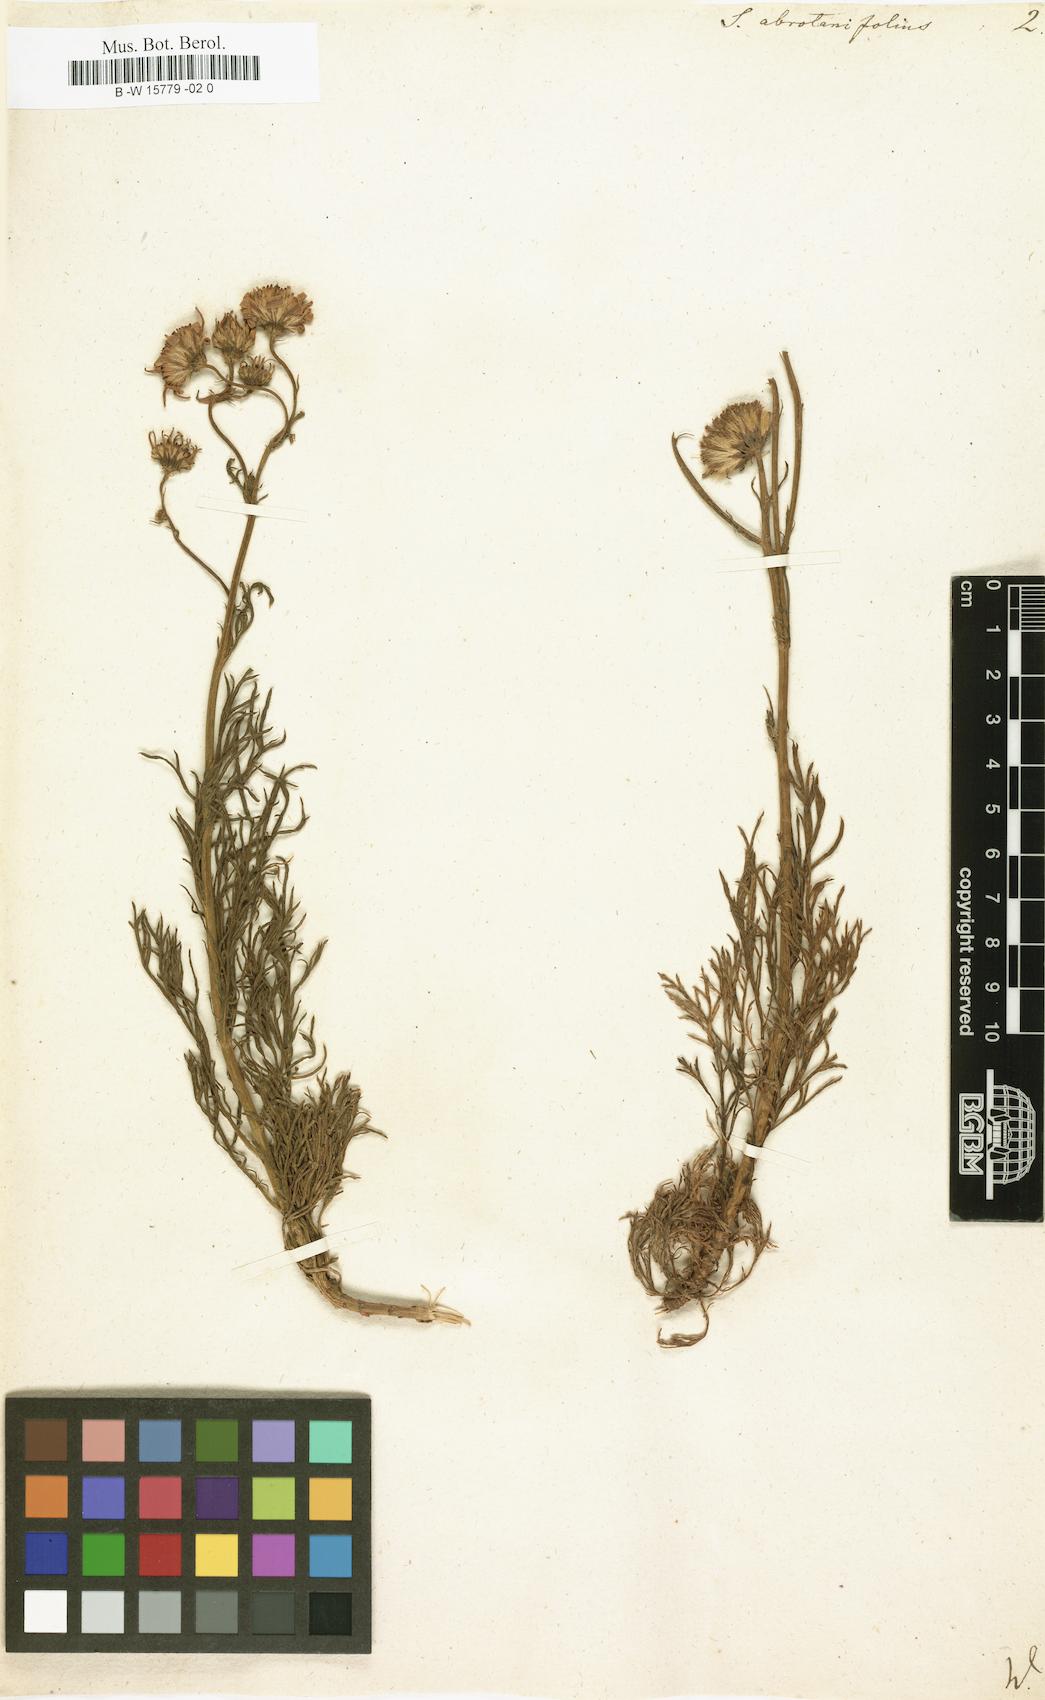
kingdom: Plantae
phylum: Tracheophyta
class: Magnoliopsida
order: Asterales
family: Asteraceae
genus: Jacobaea
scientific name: Jacobaea abrotanifolia
